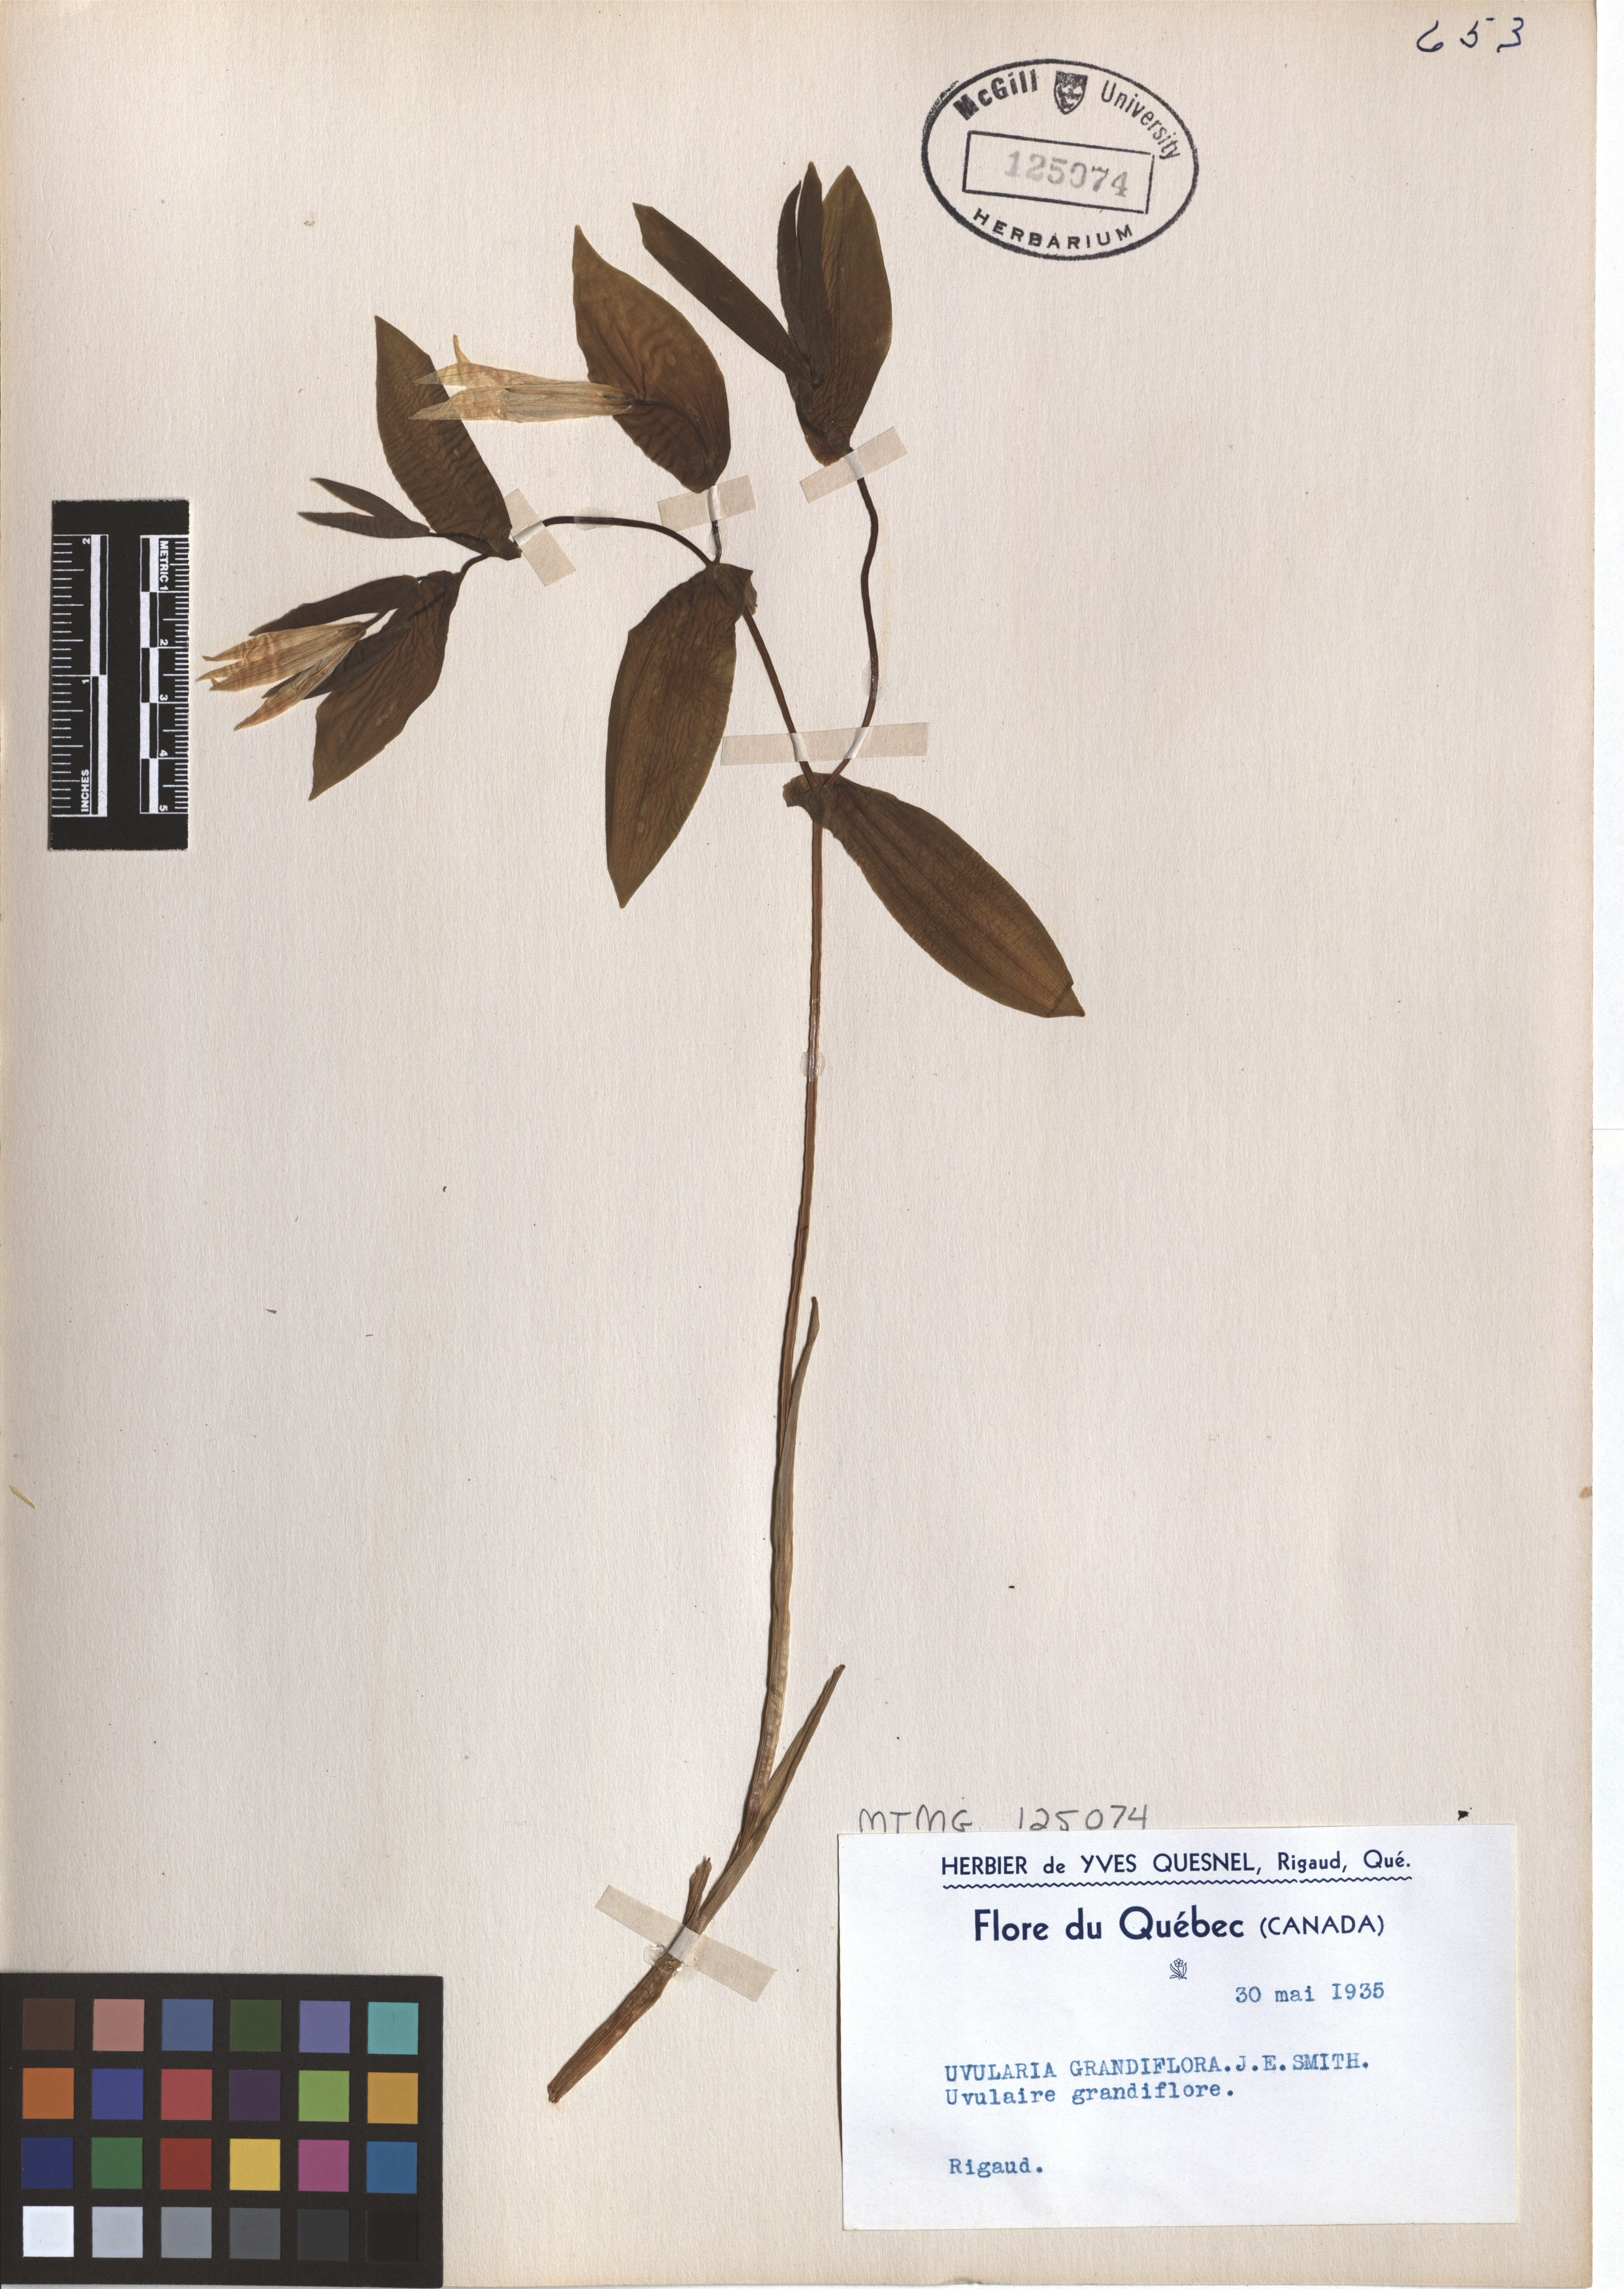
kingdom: Plantae
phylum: Tracheophyta
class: Liliopsida
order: Liliales
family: Colchicaceae
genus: Uvularia
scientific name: Uvularia grandiflora
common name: Bellwort
